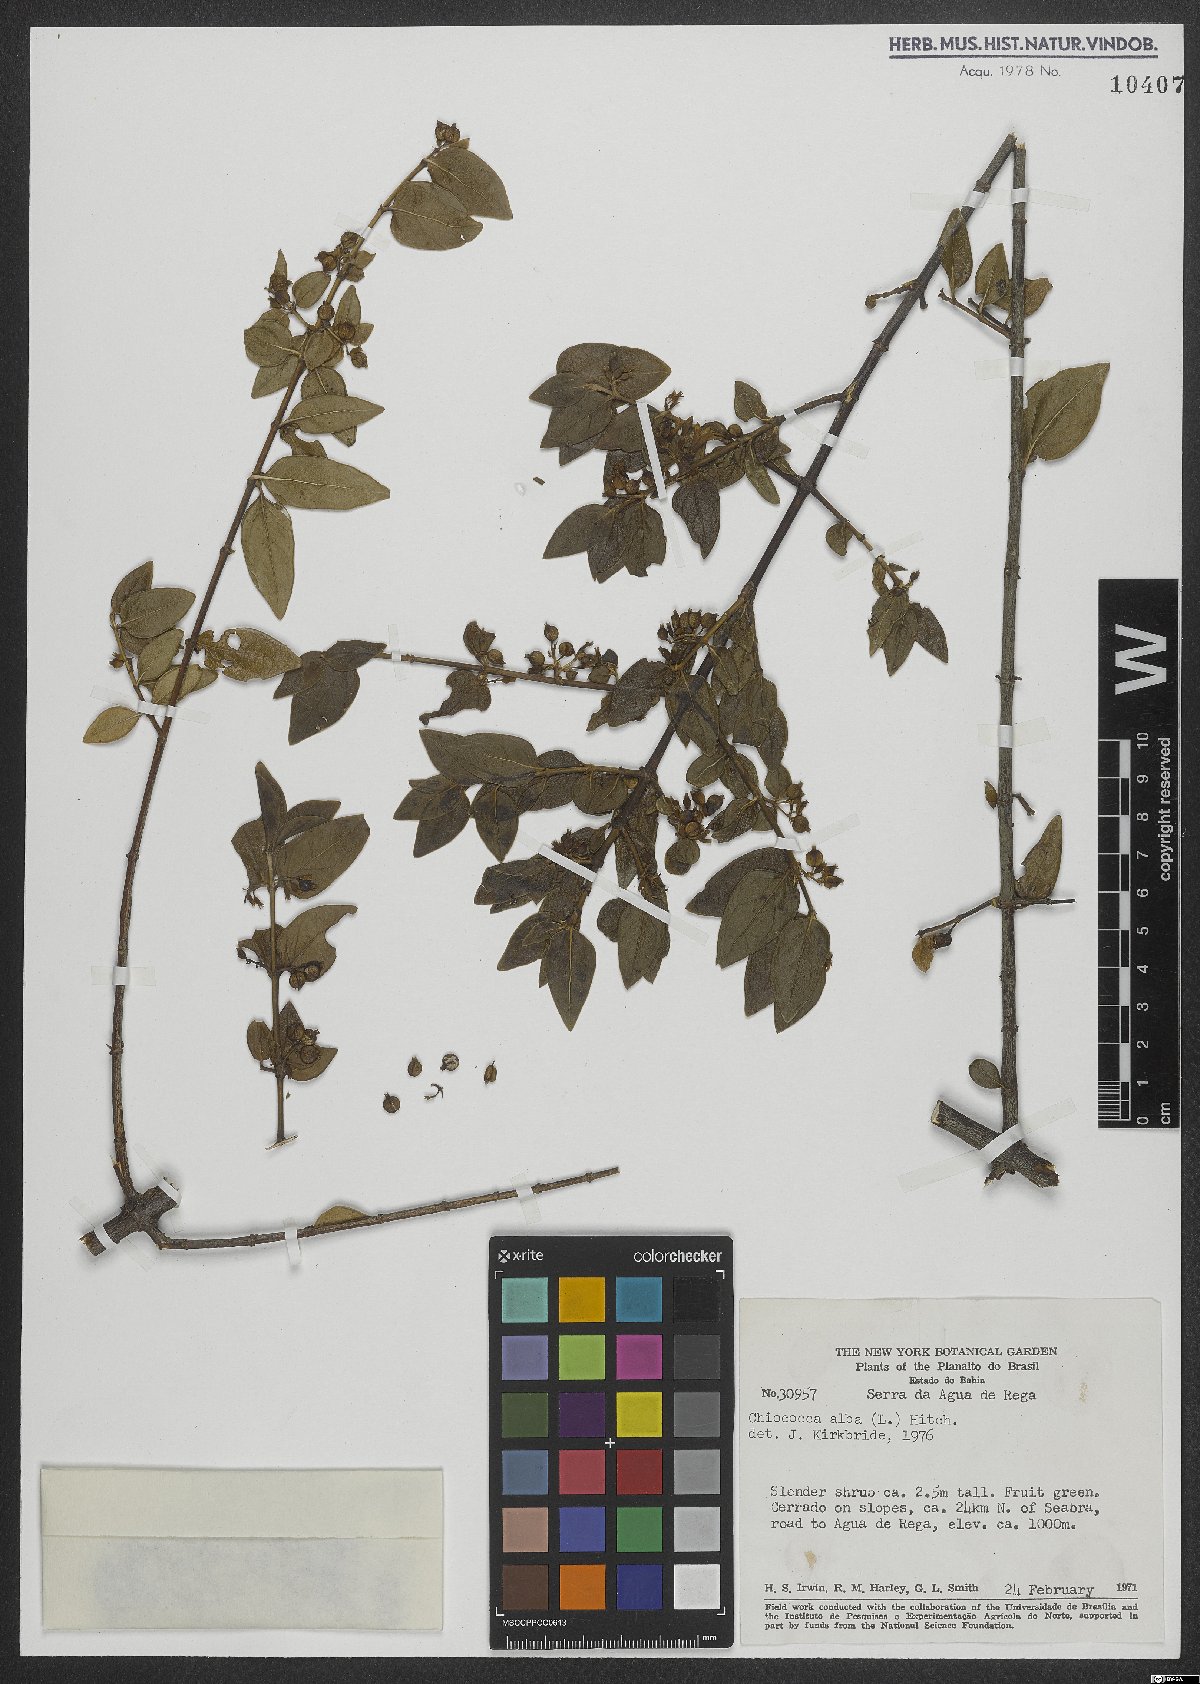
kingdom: Plantae
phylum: Tracheophyta
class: Magnoliopsida
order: Gentianales
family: Rubiaceae
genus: Chiococca
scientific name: Chiococca alba
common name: Snowberry
